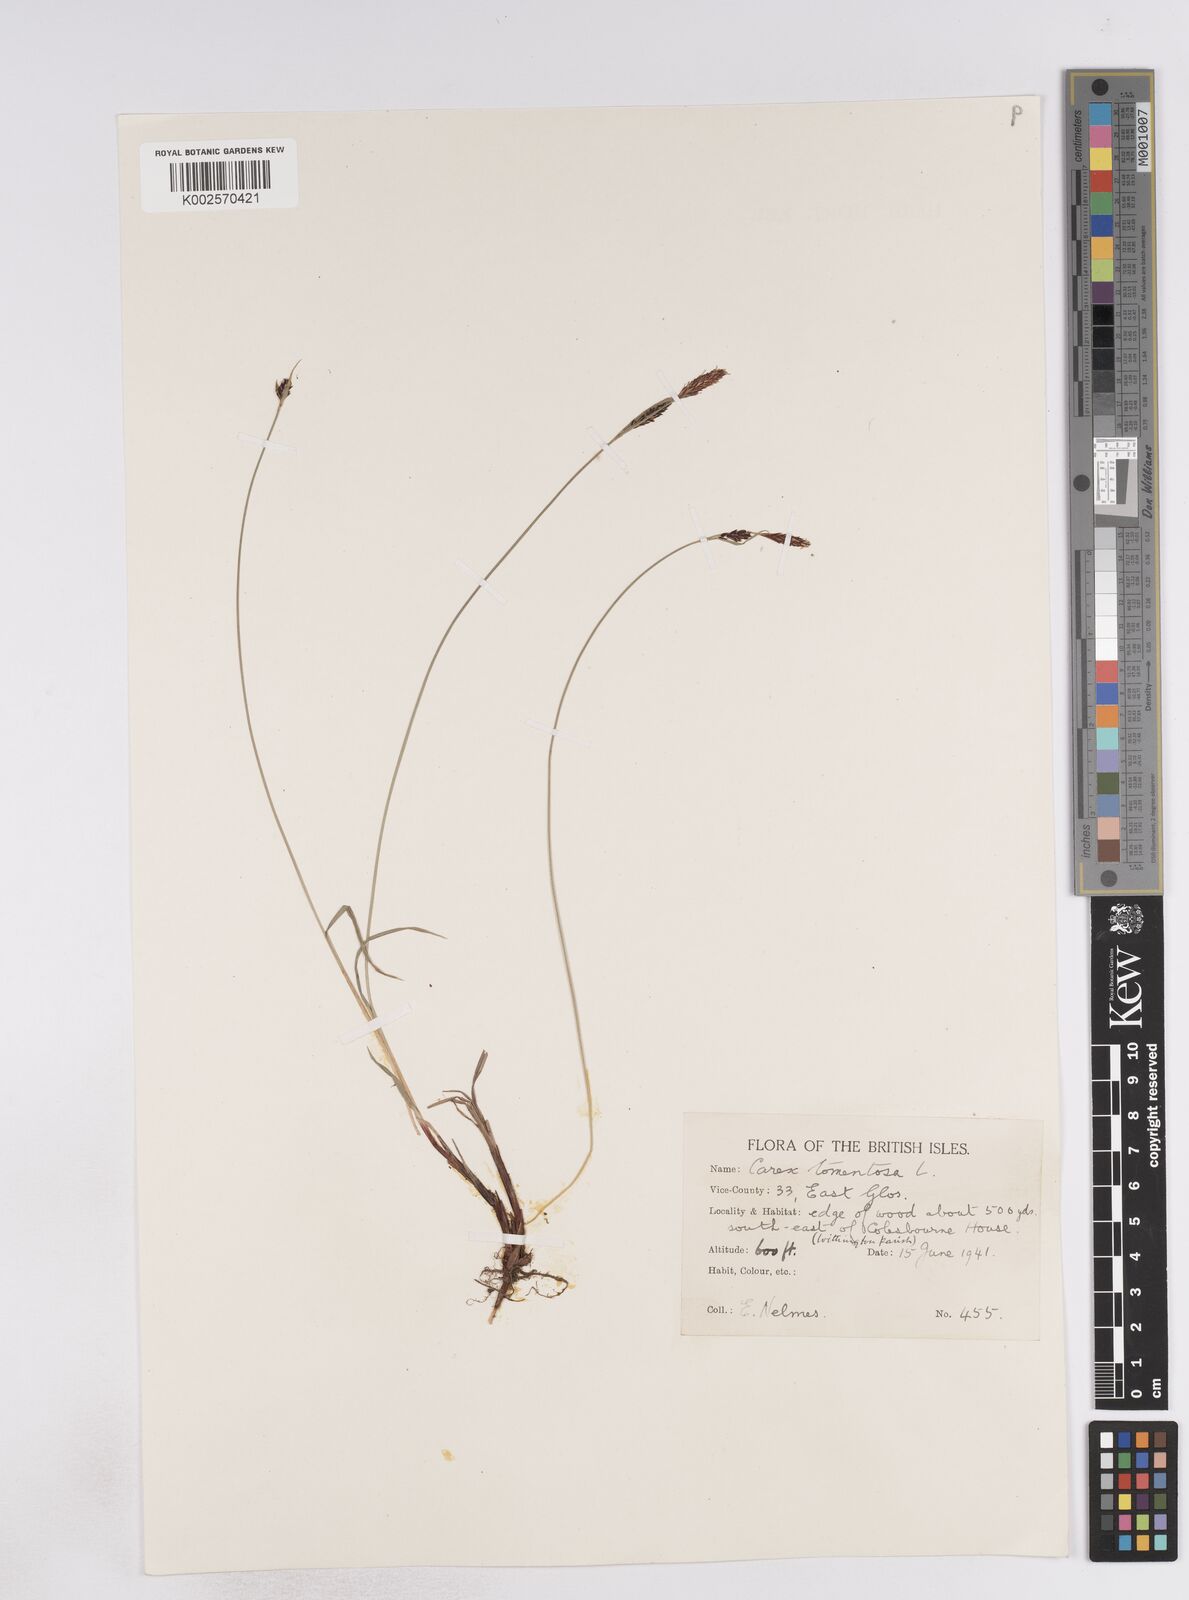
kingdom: Plantae
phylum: Tracheophyta
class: Liliopsida
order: Poales
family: Cyperaceae
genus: Carex
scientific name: Carex montana
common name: Soft-leaved sedge
